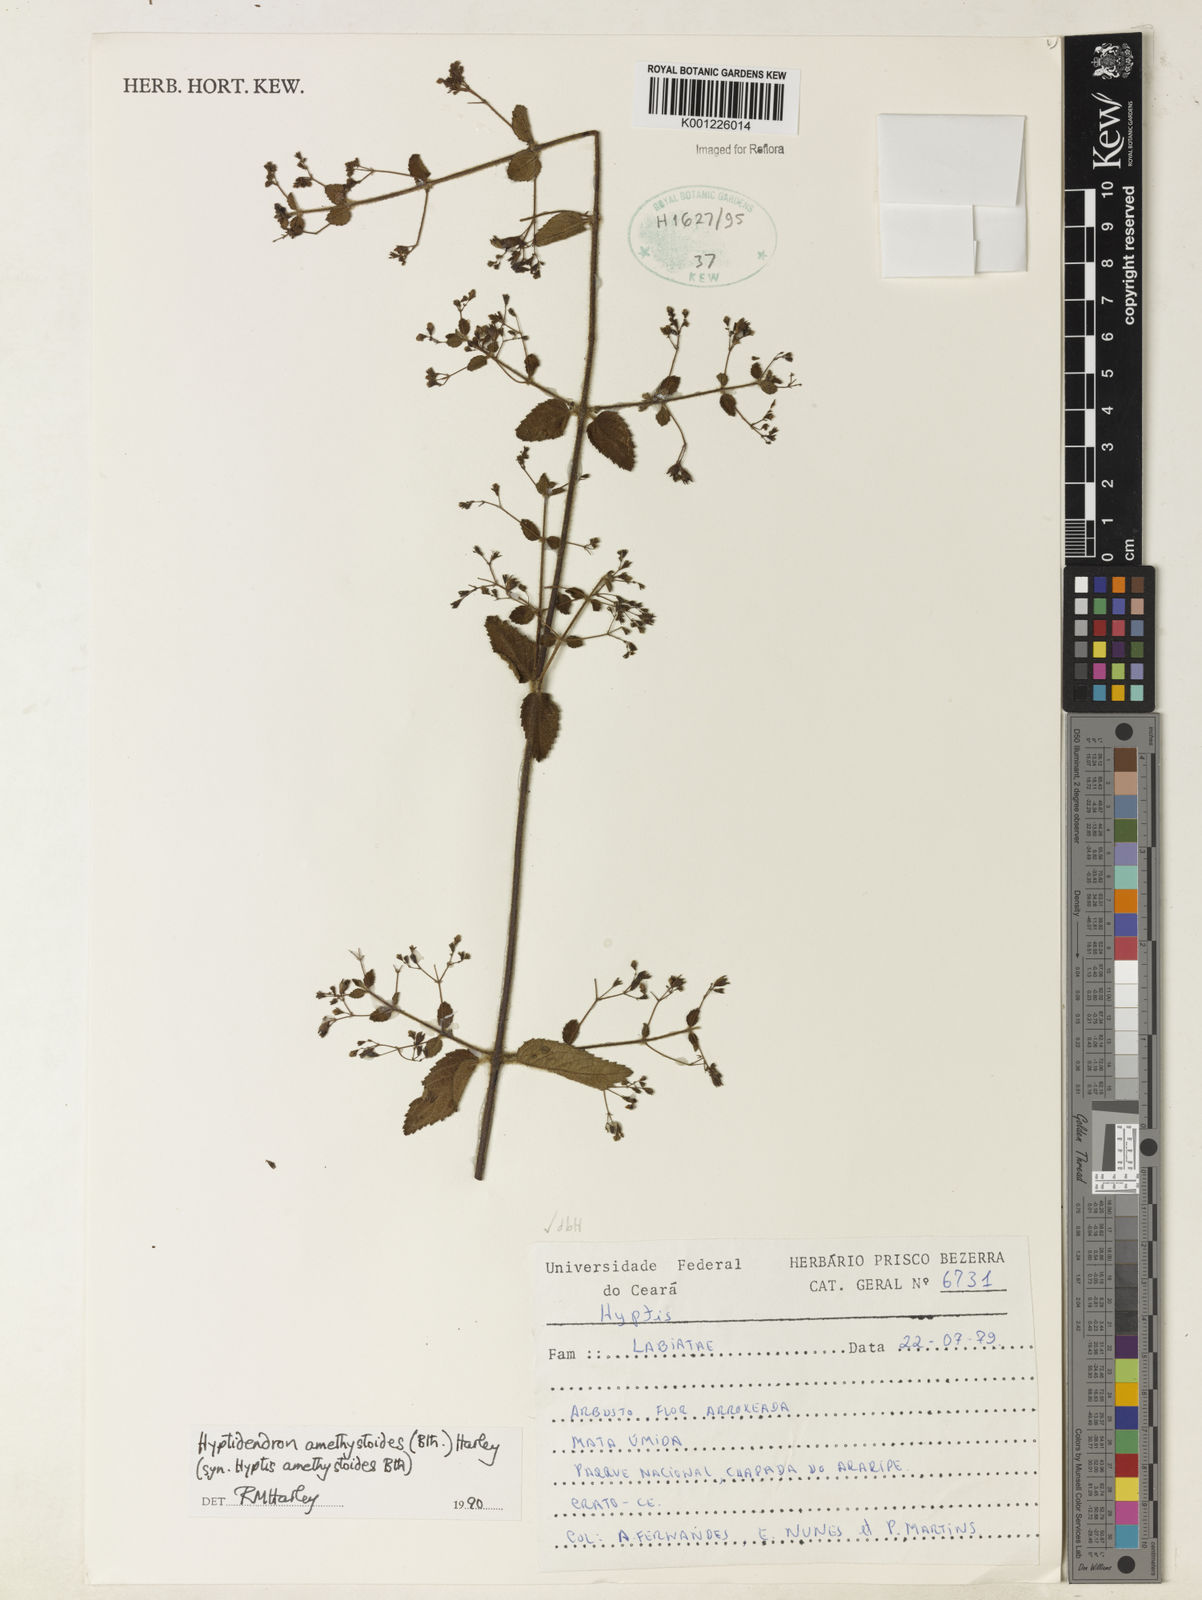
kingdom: Plantae
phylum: Tracheophyta
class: Magnoliopsida
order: Lamiales
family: Lamiaceae
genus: Hyptidendron
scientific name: Hyptidendron amethystoides
